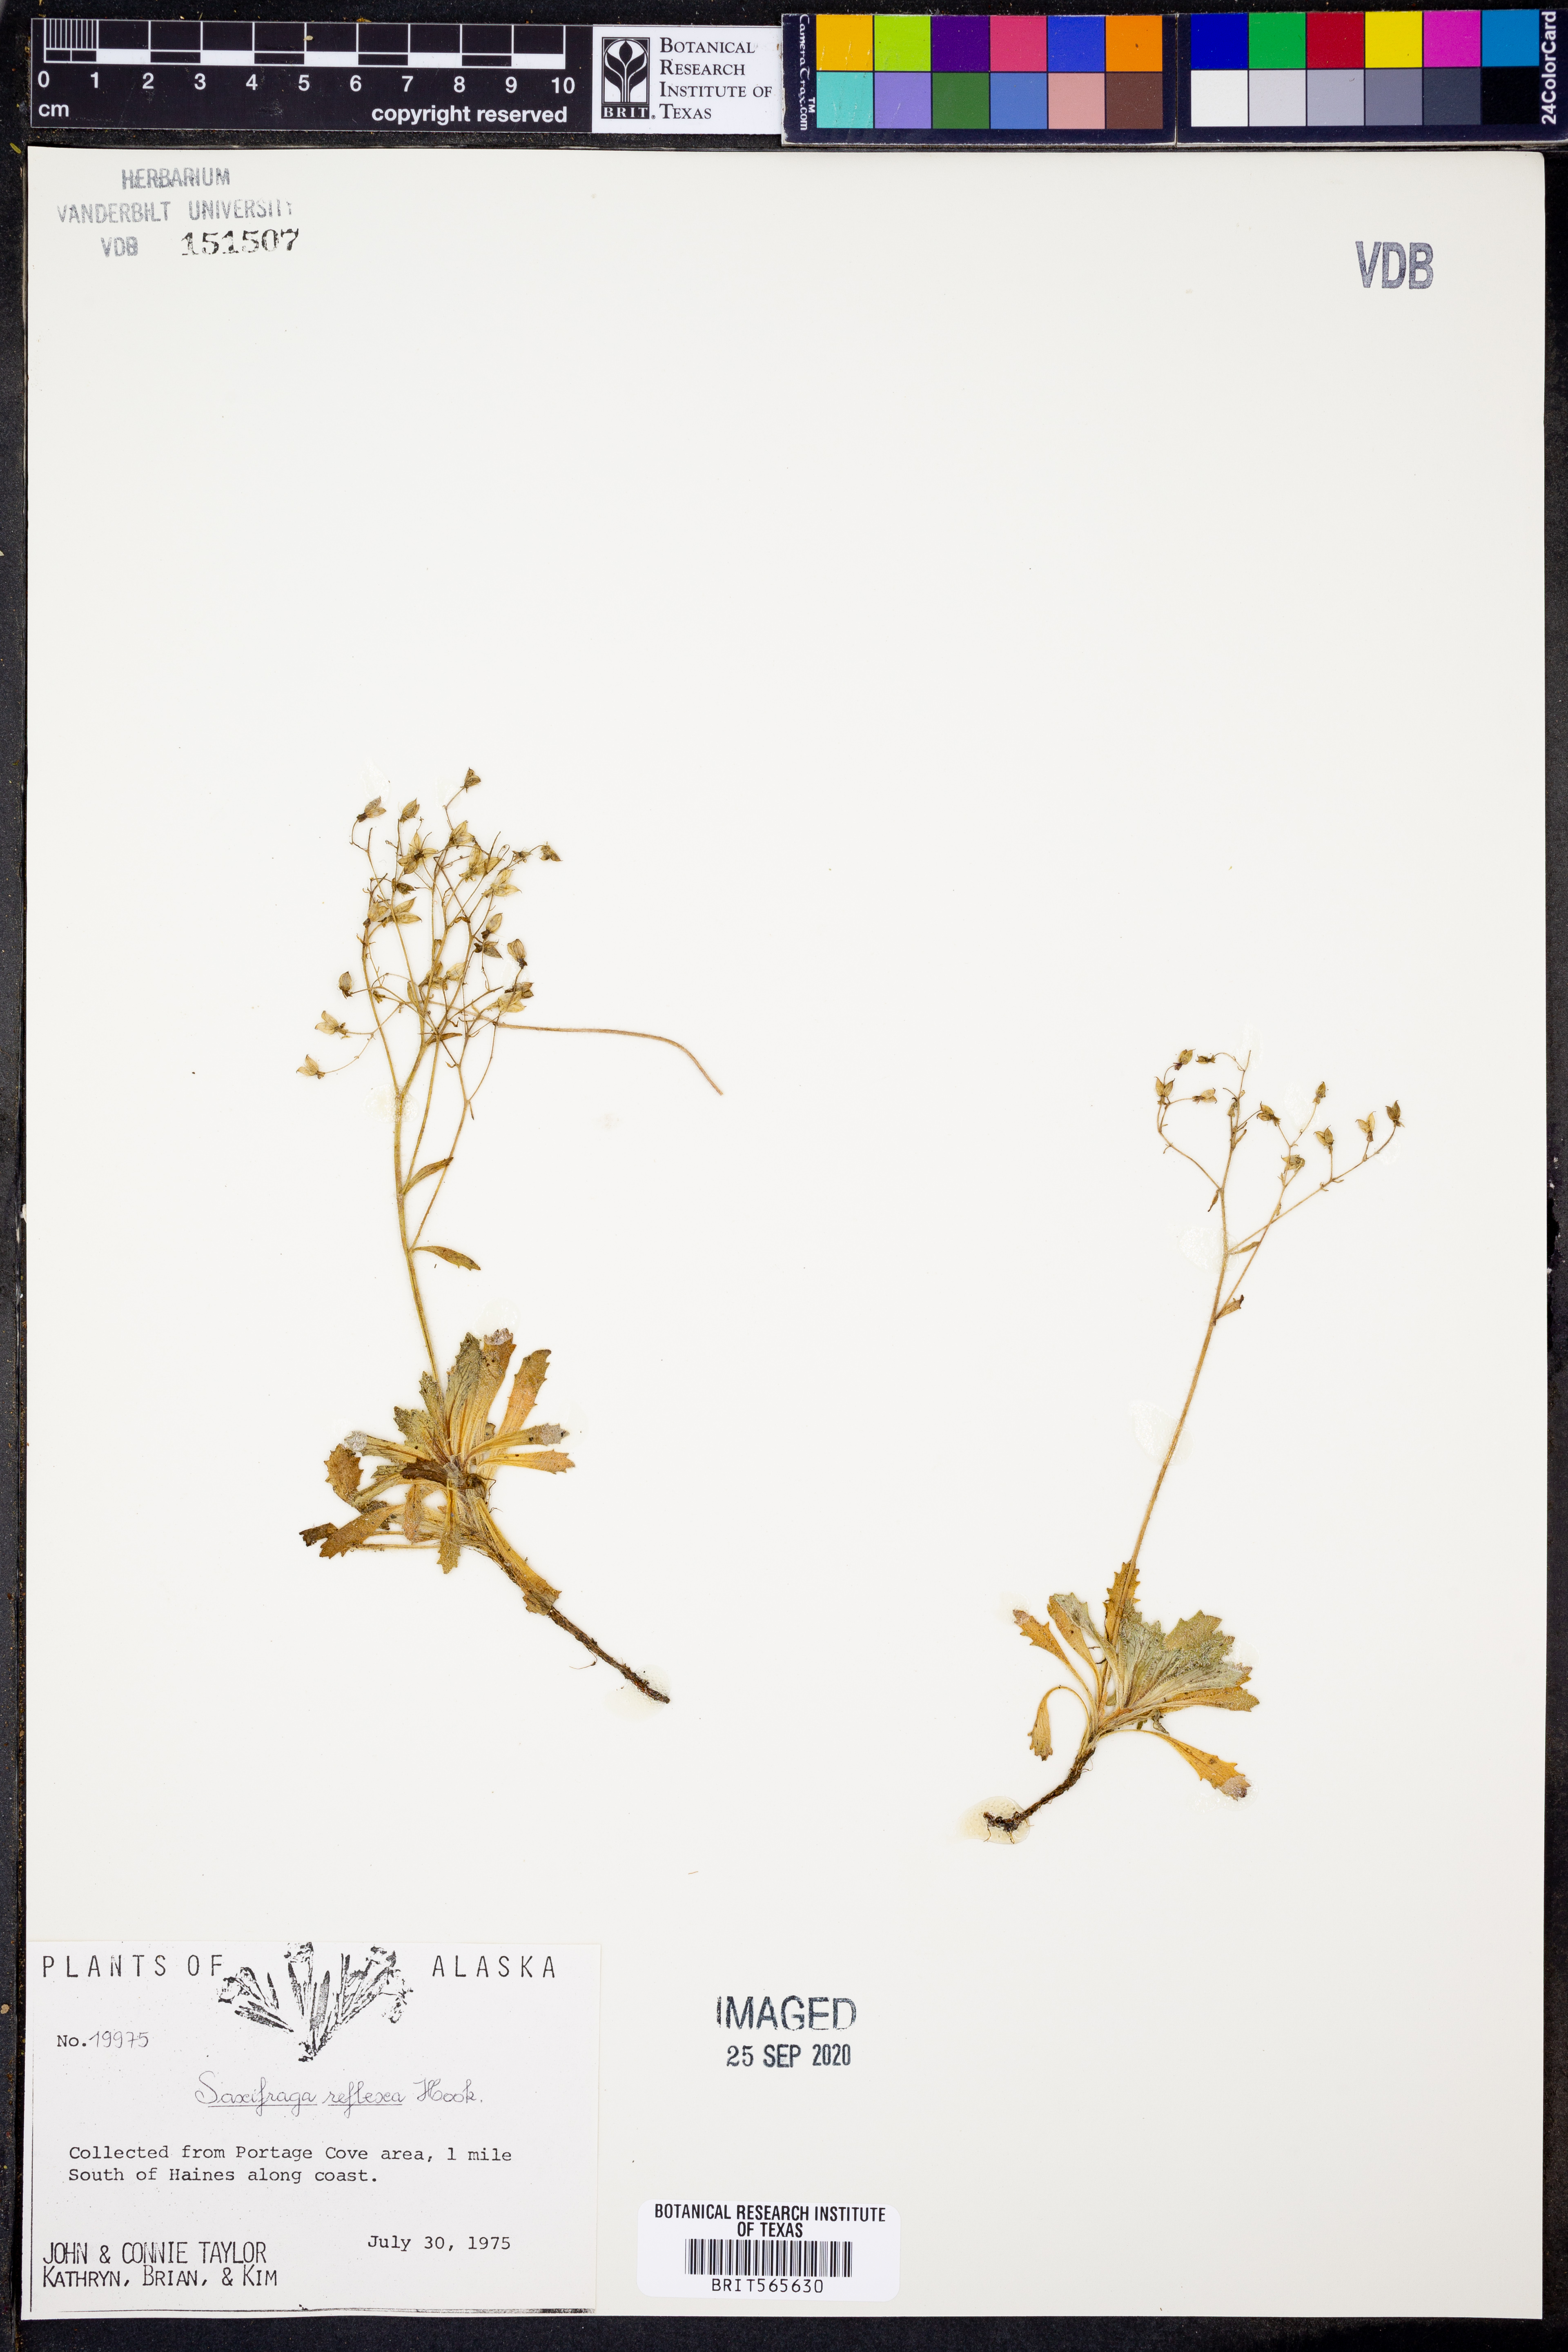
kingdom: Plantae
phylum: Tracheophyta
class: Magnoliopsida
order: Saxifragales
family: Saxifragaceae
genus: Saxifraga
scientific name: Saxifraga moorcroftiana
